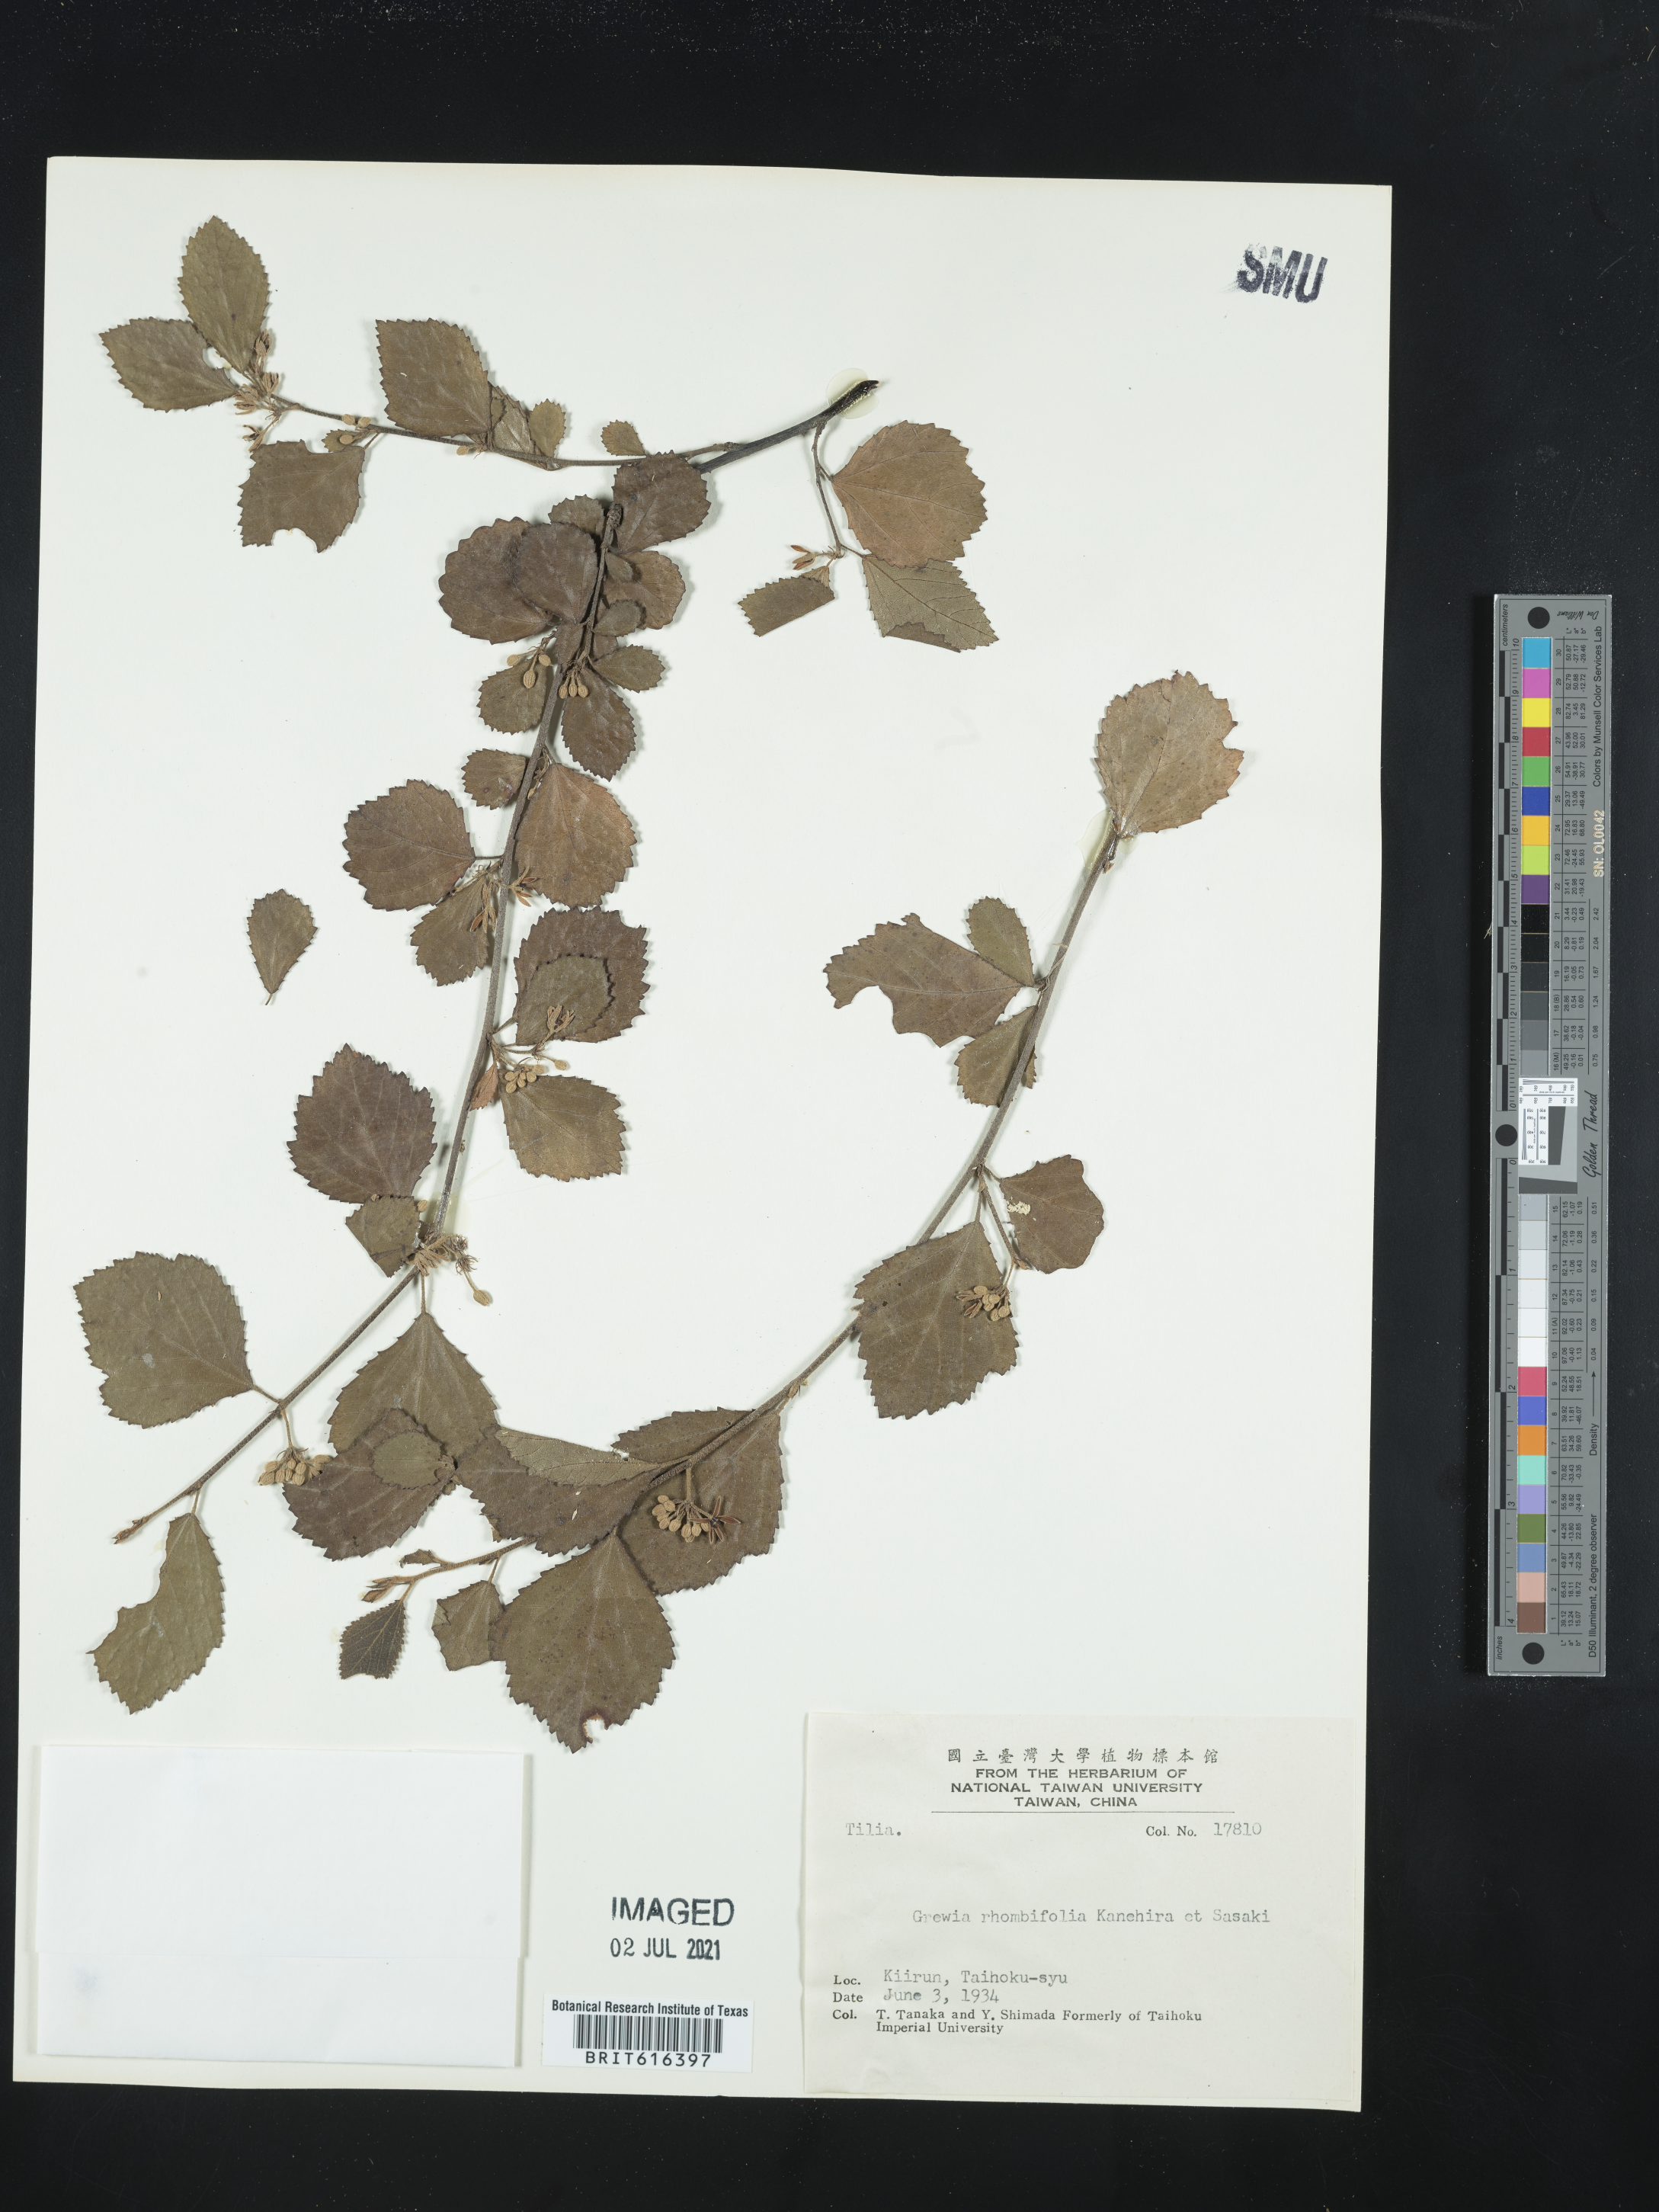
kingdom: Plantae
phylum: Tracheophyta
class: Magnoliopsida
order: Malvales
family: Malvaceae
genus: Grewia
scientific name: Grewia rhombifolia
